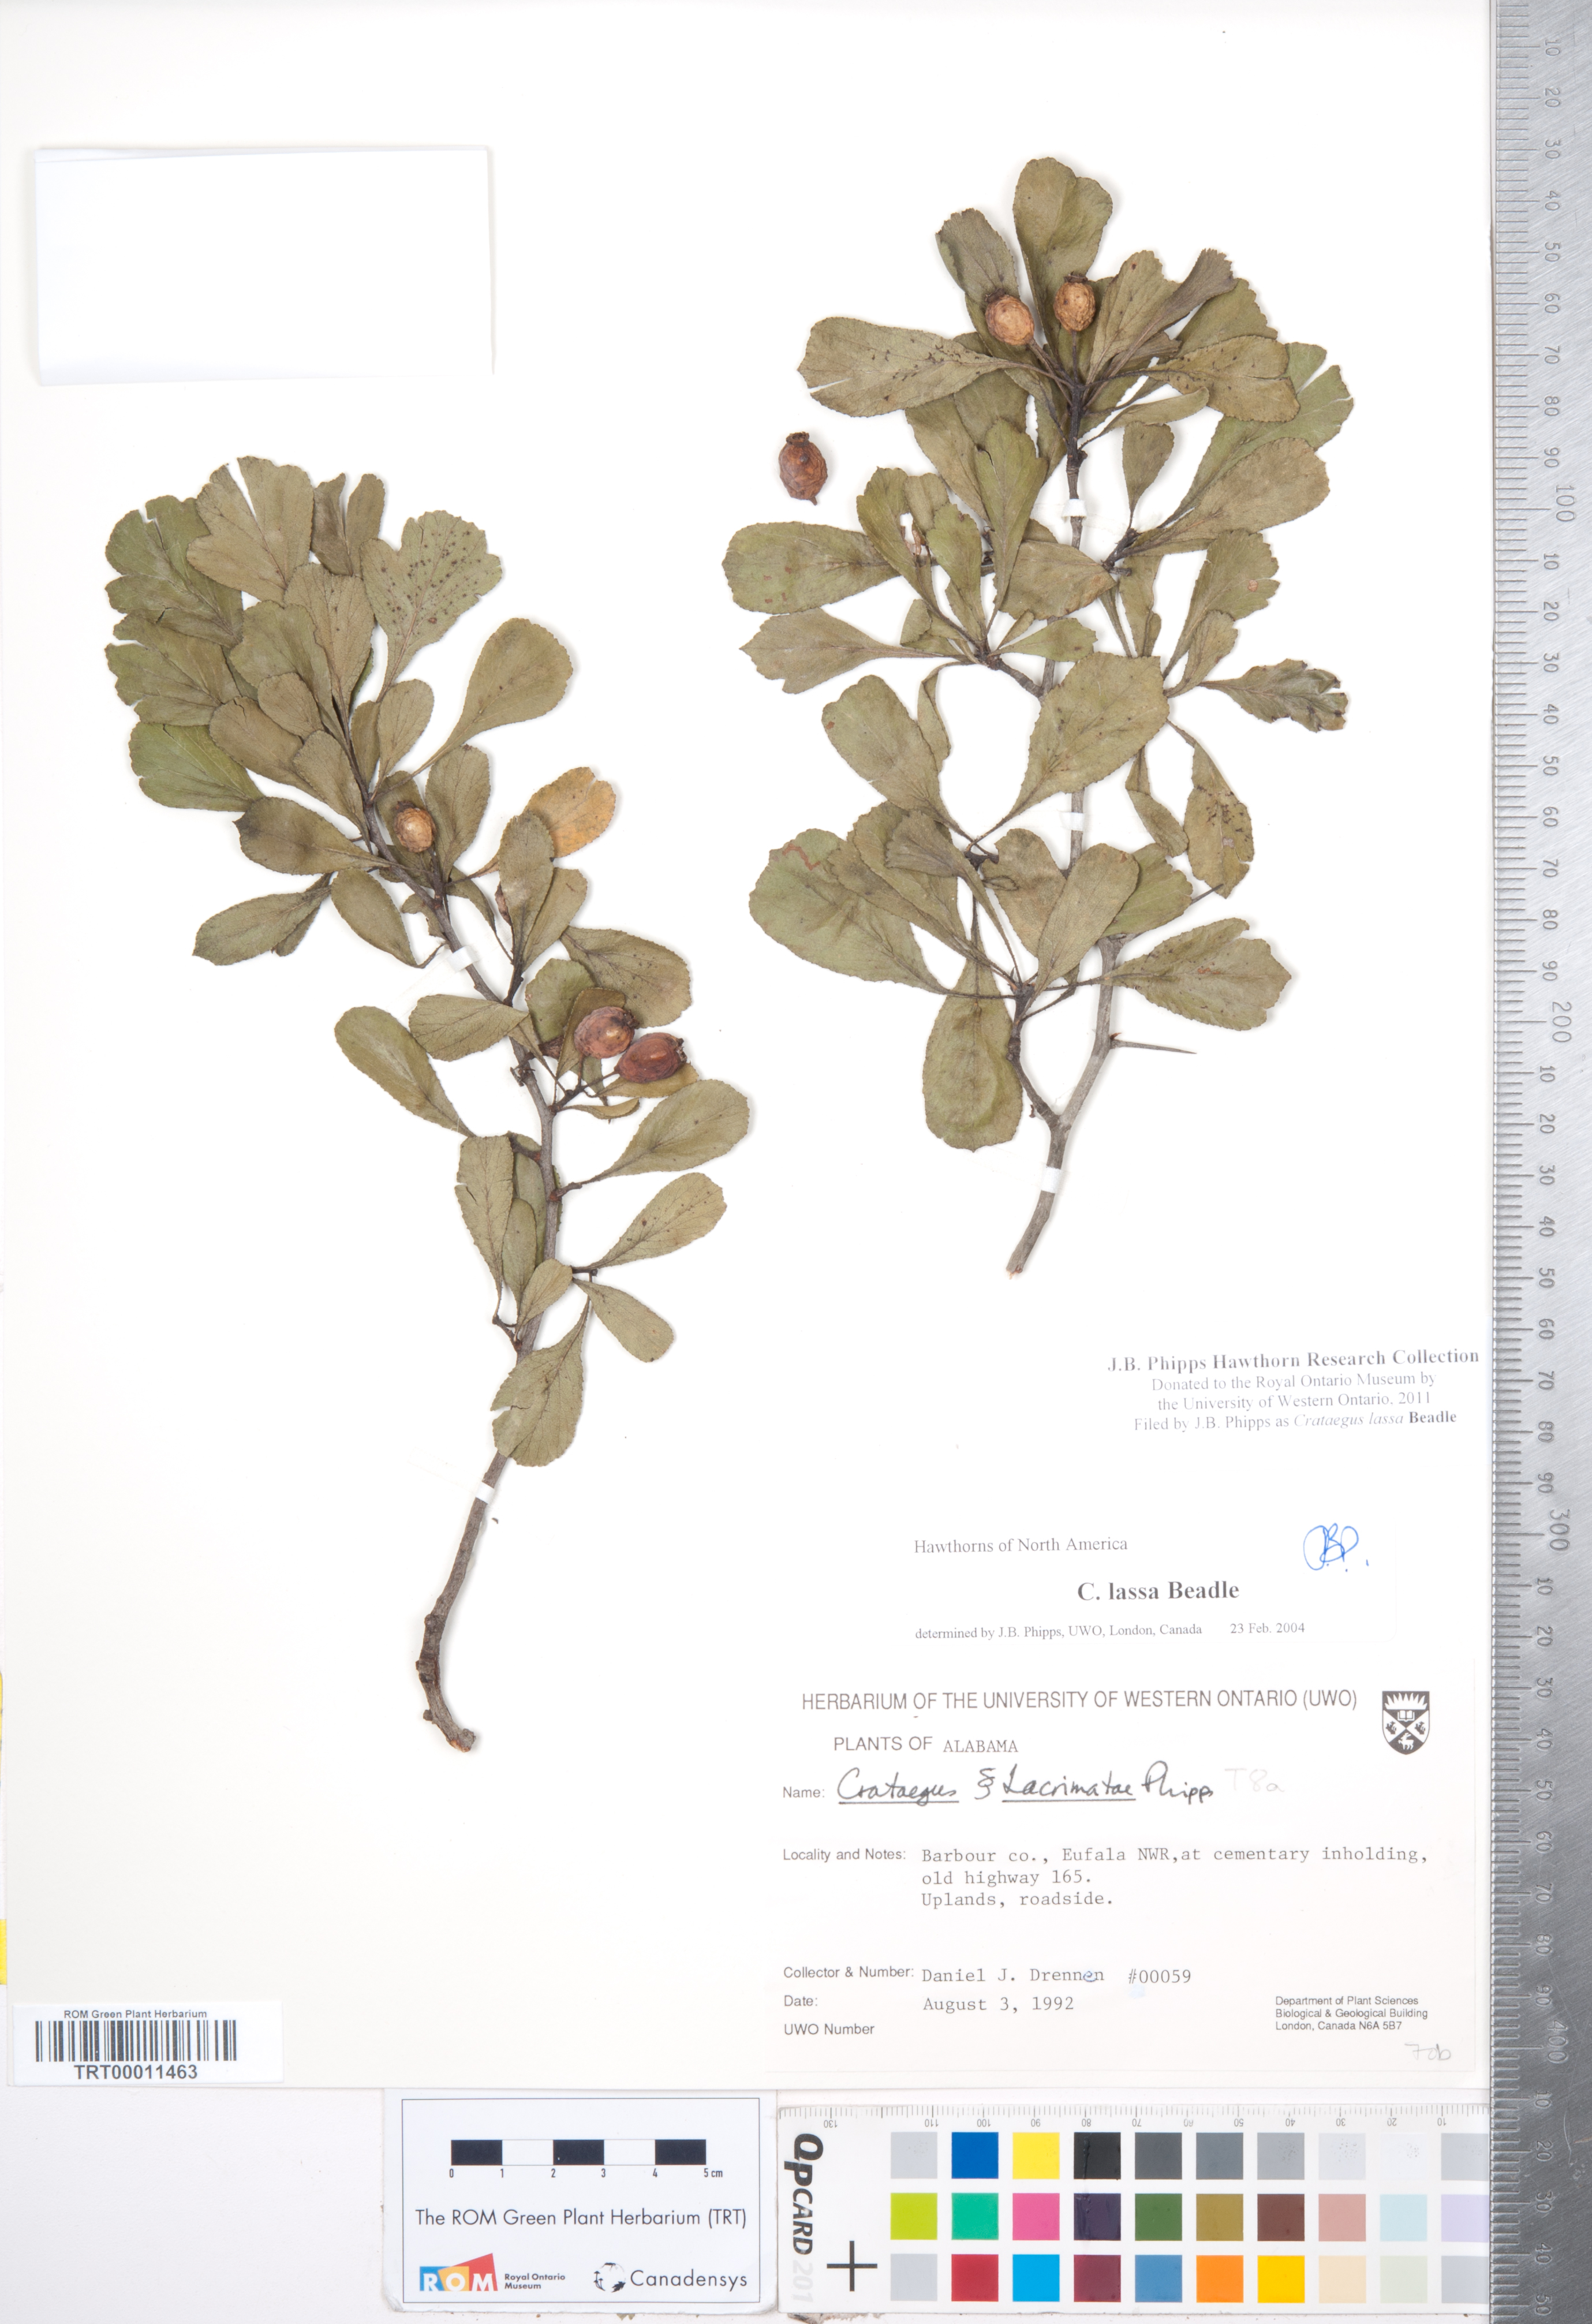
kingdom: Plantae
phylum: Tracheophyta
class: Magnoliopsida
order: Rosales
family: Rosaceae
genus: Crataegus
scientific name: Crataegus lassa
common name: Florida hawthorn
